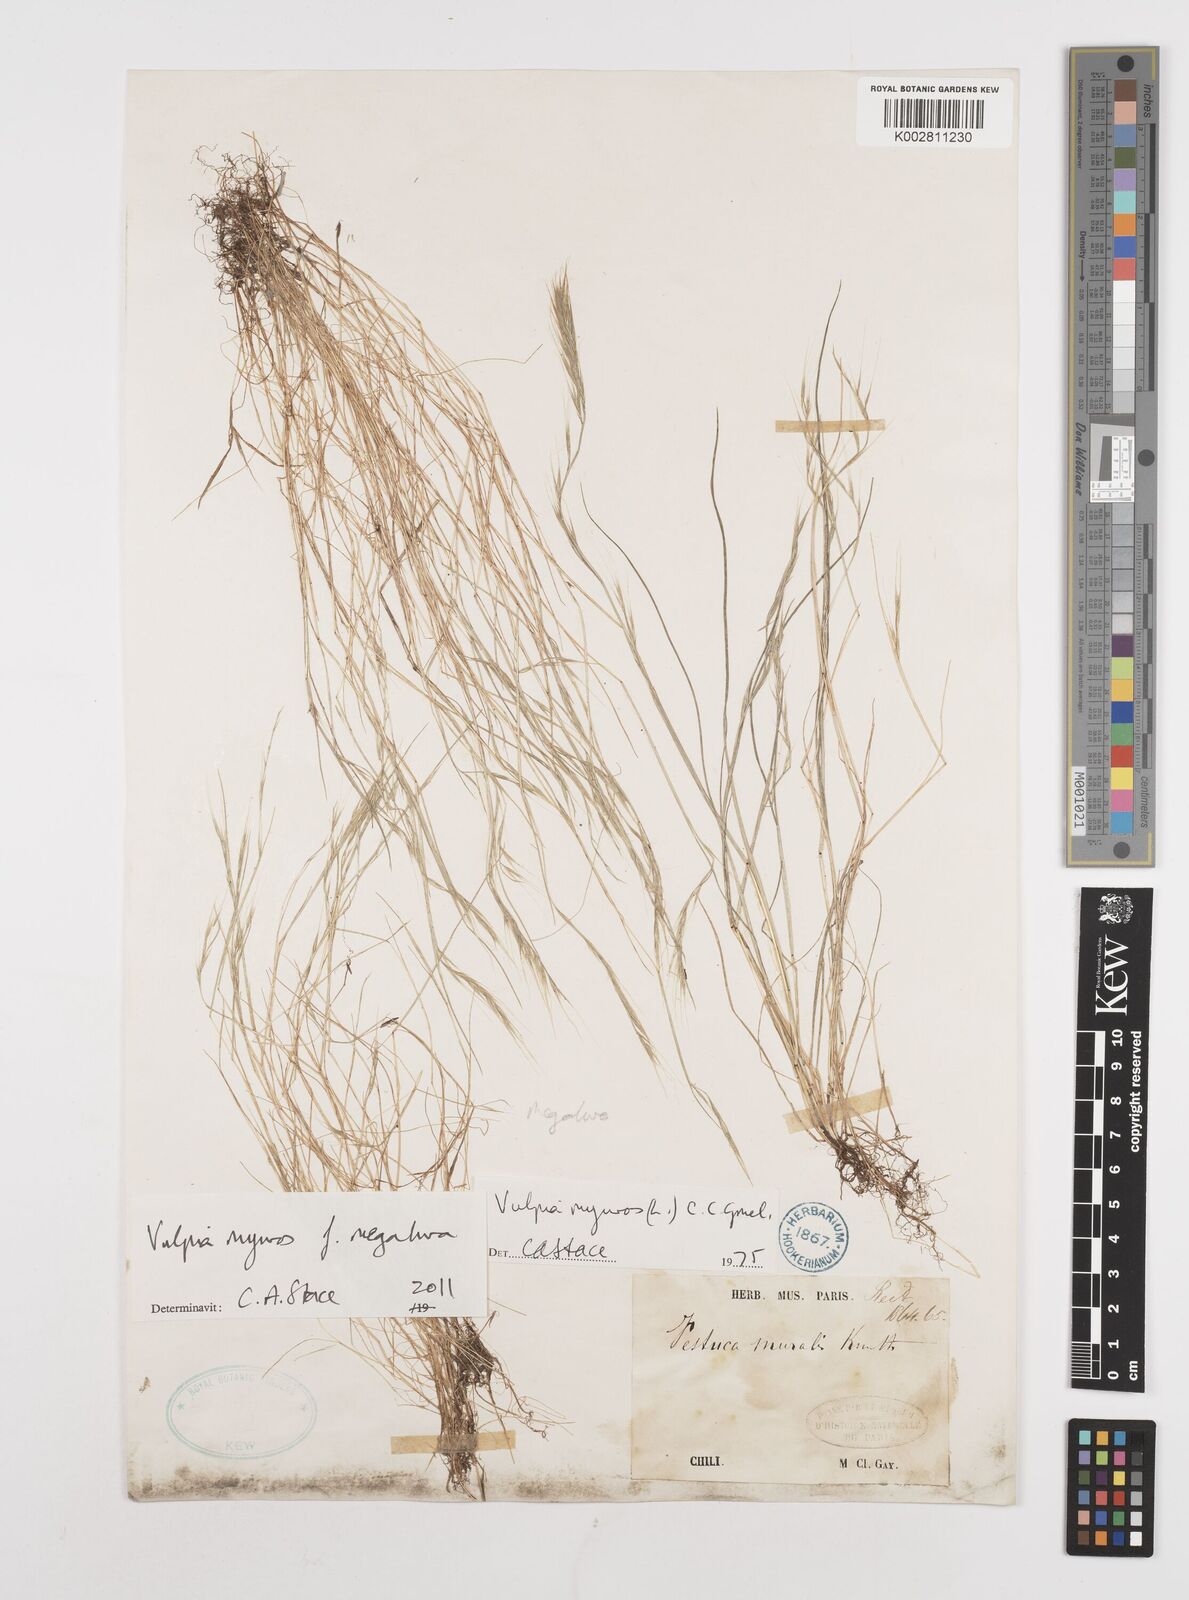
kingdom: Plantae
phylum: Tracheophyta
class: Liliopsida
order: Poales
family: Poaceae
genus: Festuca
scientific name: Festuca myuros
